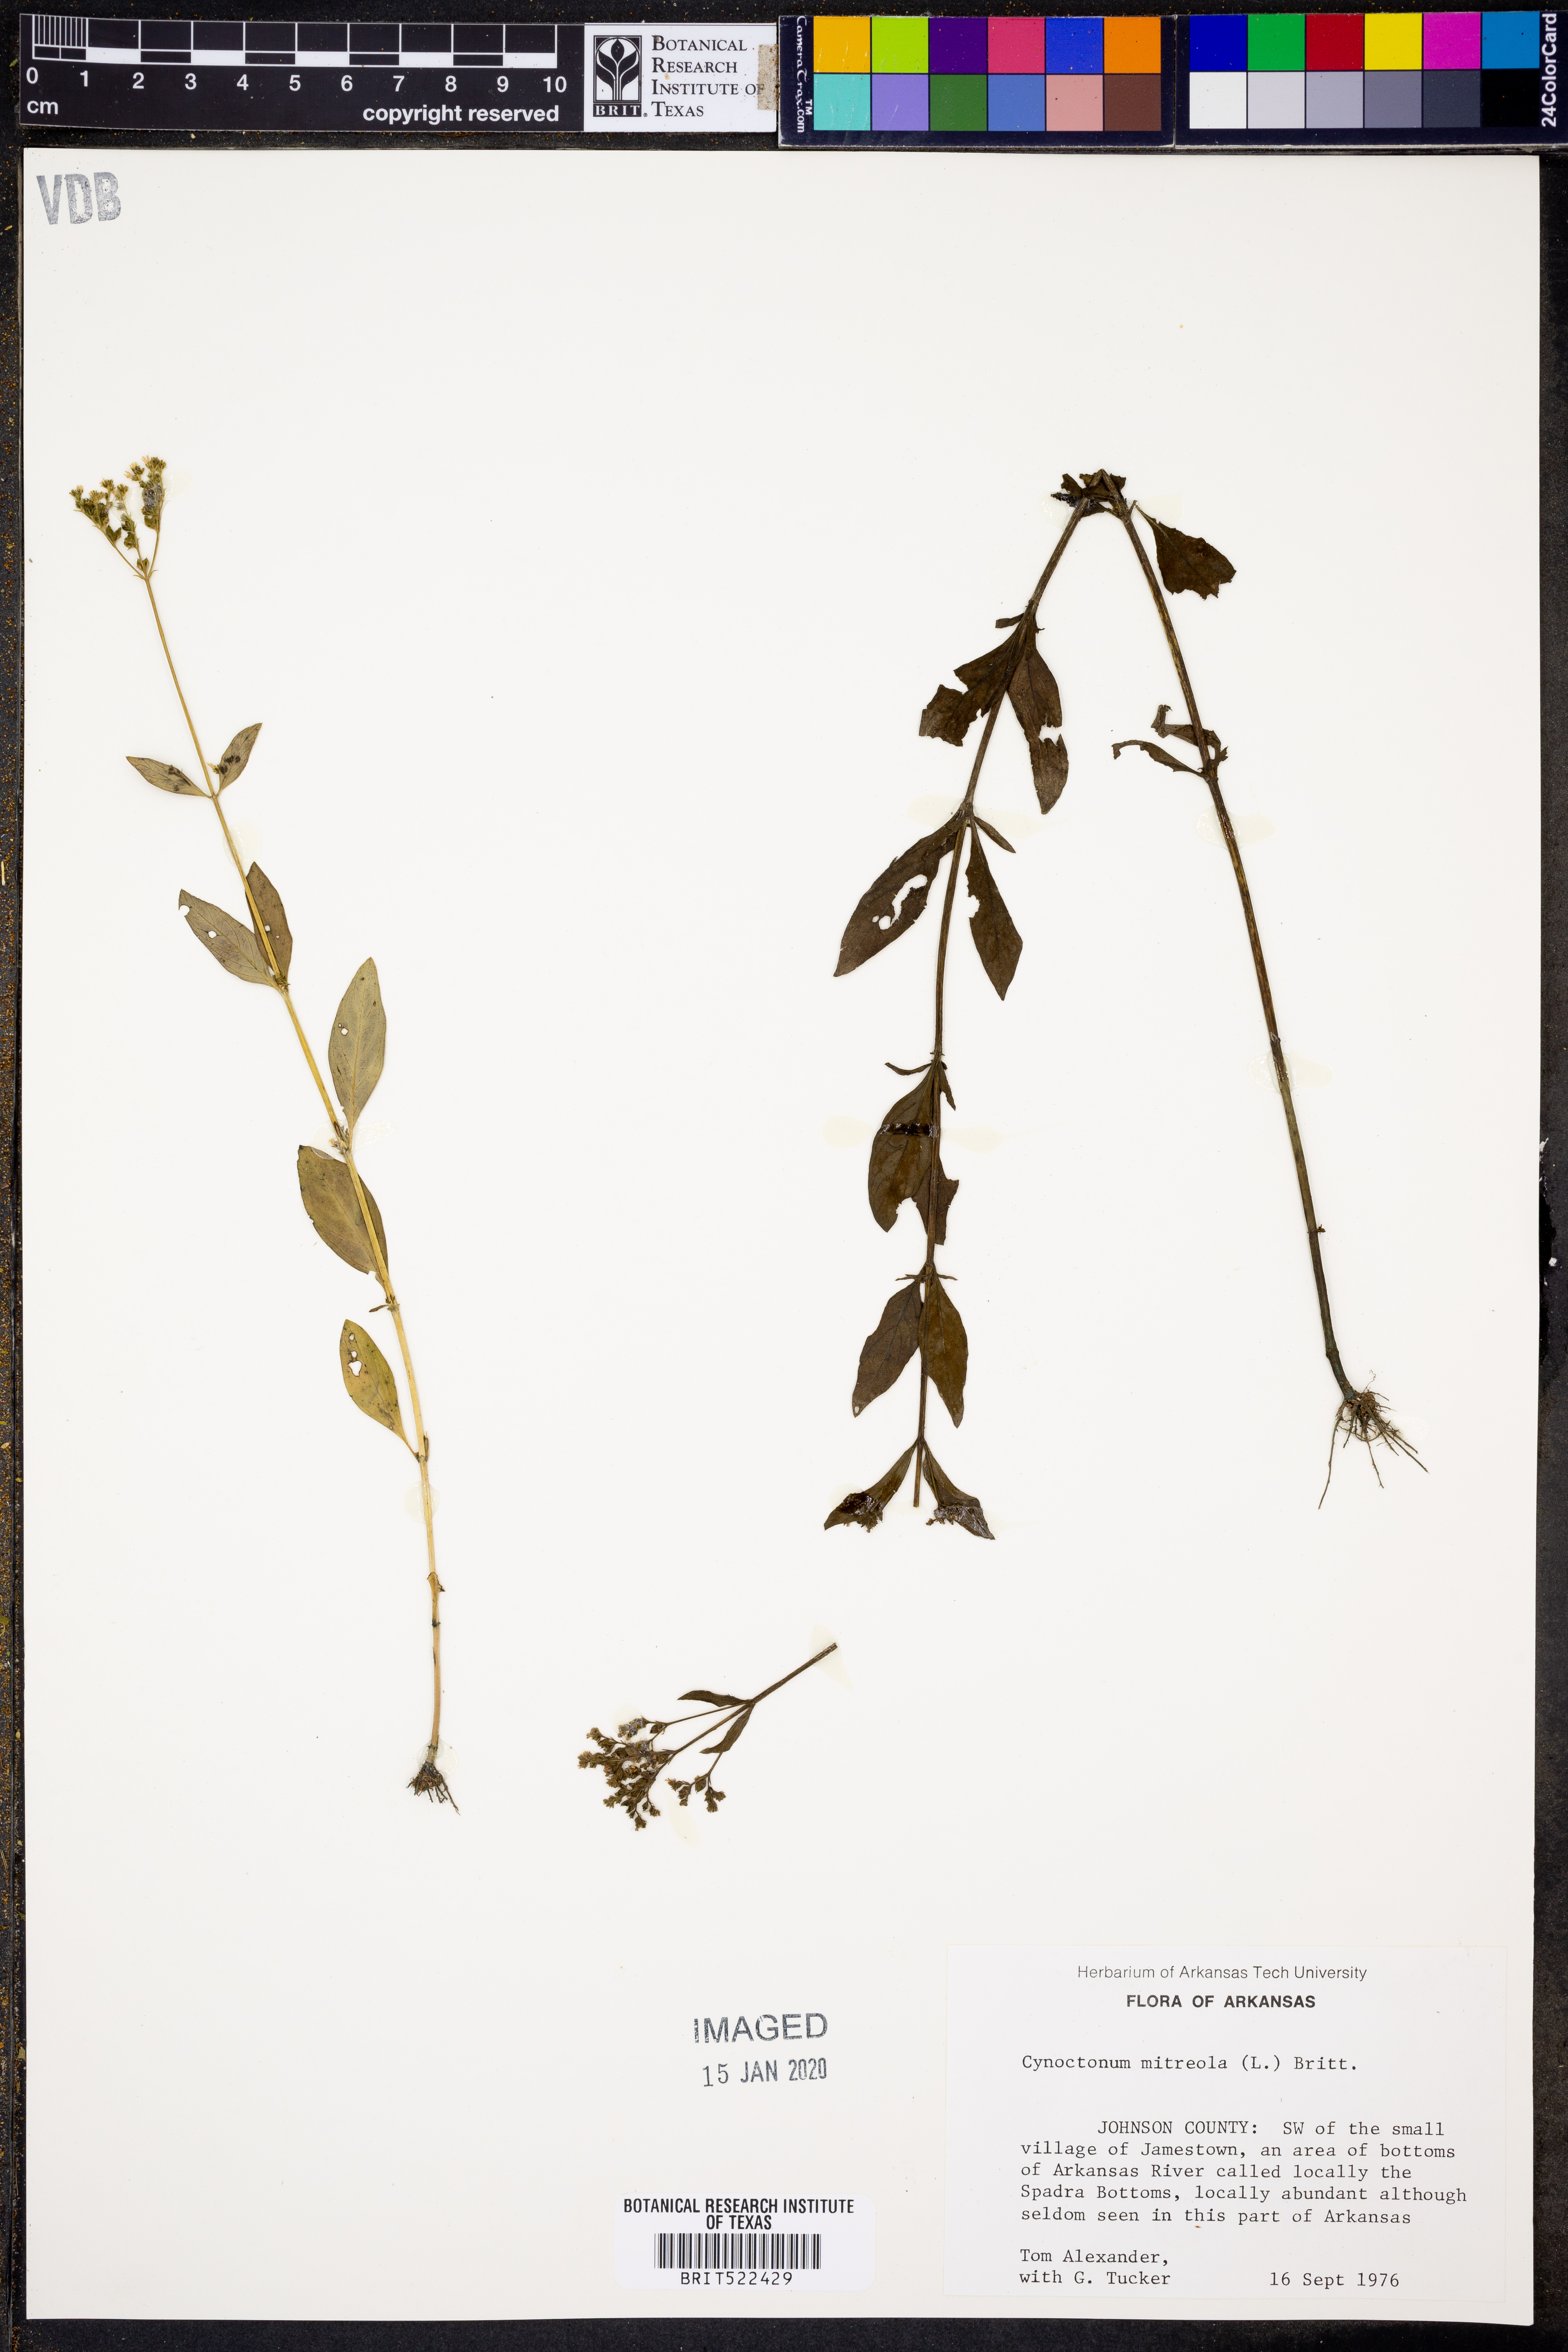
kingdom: Plantae
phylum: Tracheophyta
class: Magnoliopsida
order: Gentianales
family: Loganiaceae
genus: Mitreola
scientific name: Mitreola petiolata
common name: Lax hornpod
